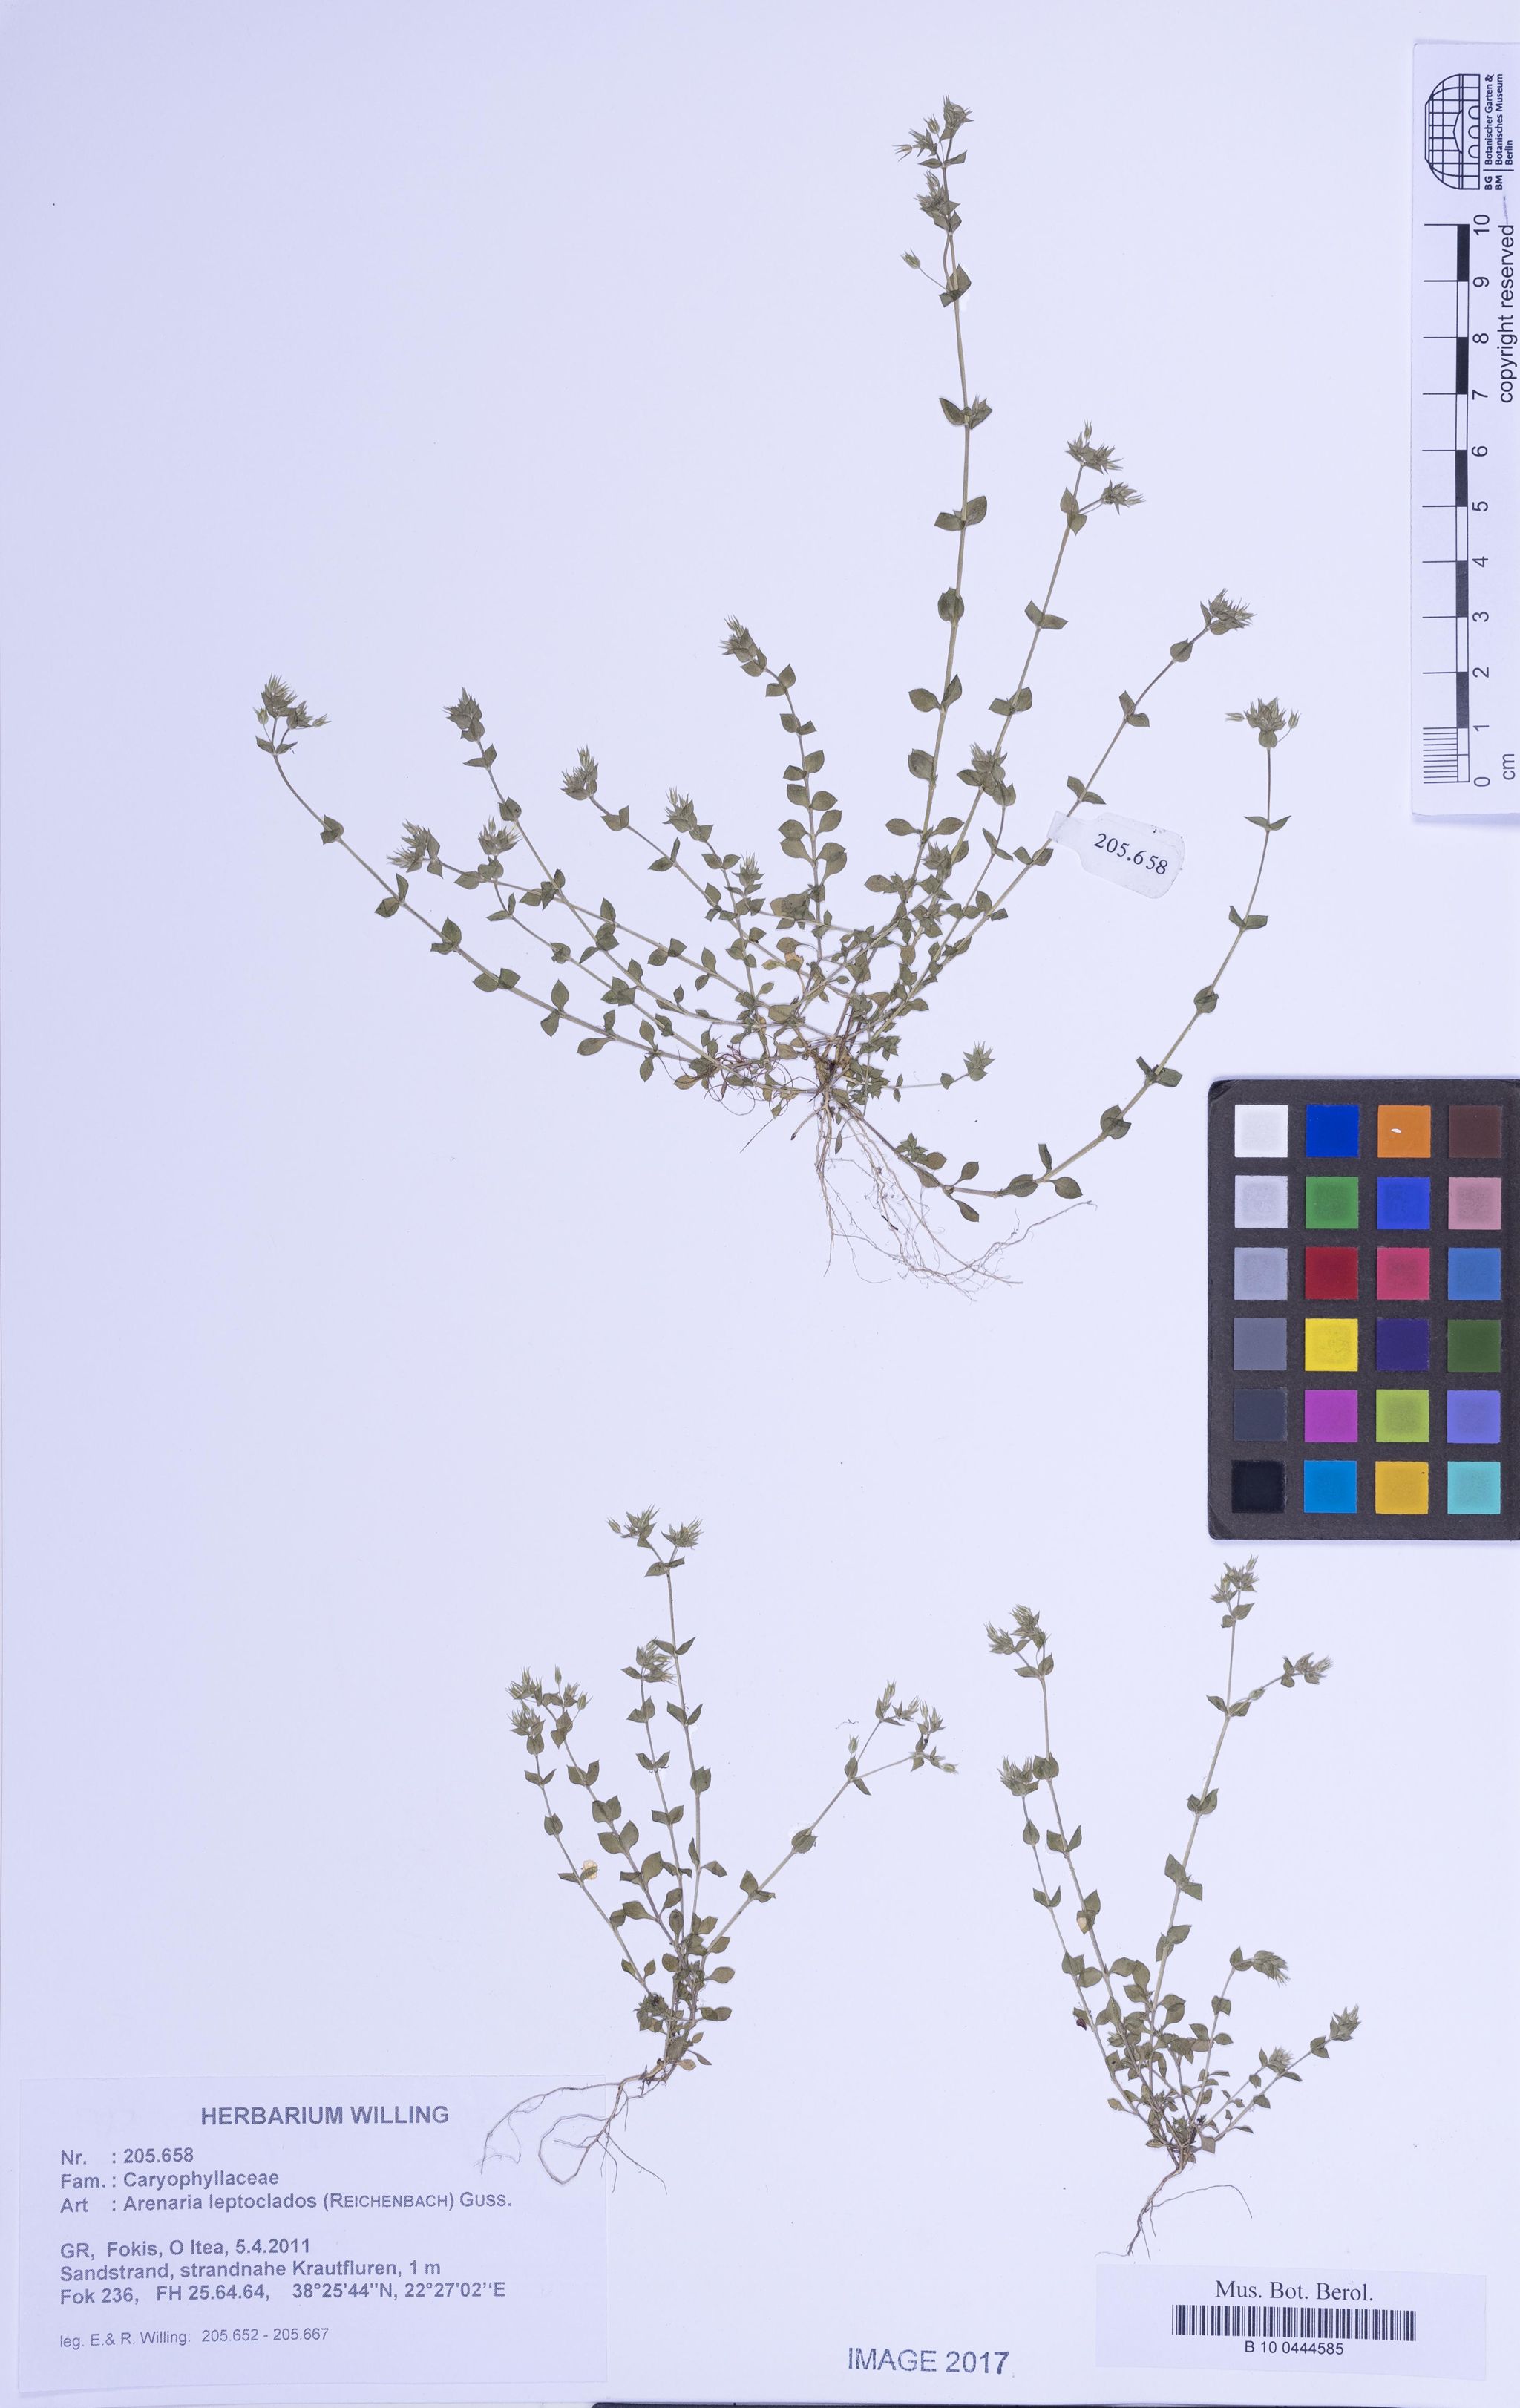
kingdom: Plantae
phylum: Tracheophyta
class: Magnoliopsida
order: Caryophyllales
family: Caryophyllaceae
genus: Arenaria
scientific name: Arenaria leptoclados
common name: Thyme-leaved sandwort
